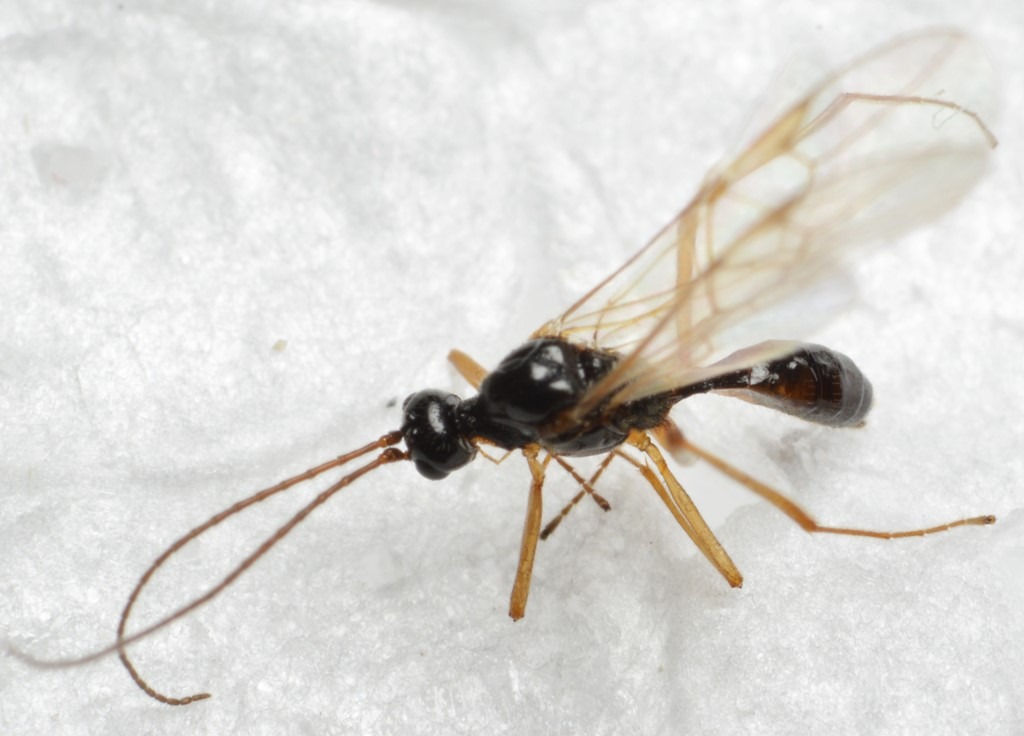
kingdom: Animalia
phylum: Arthropoda
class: Insecta
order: Hymenoptera
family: Braconidae
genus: Blacus
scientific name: Blacus pallipes
